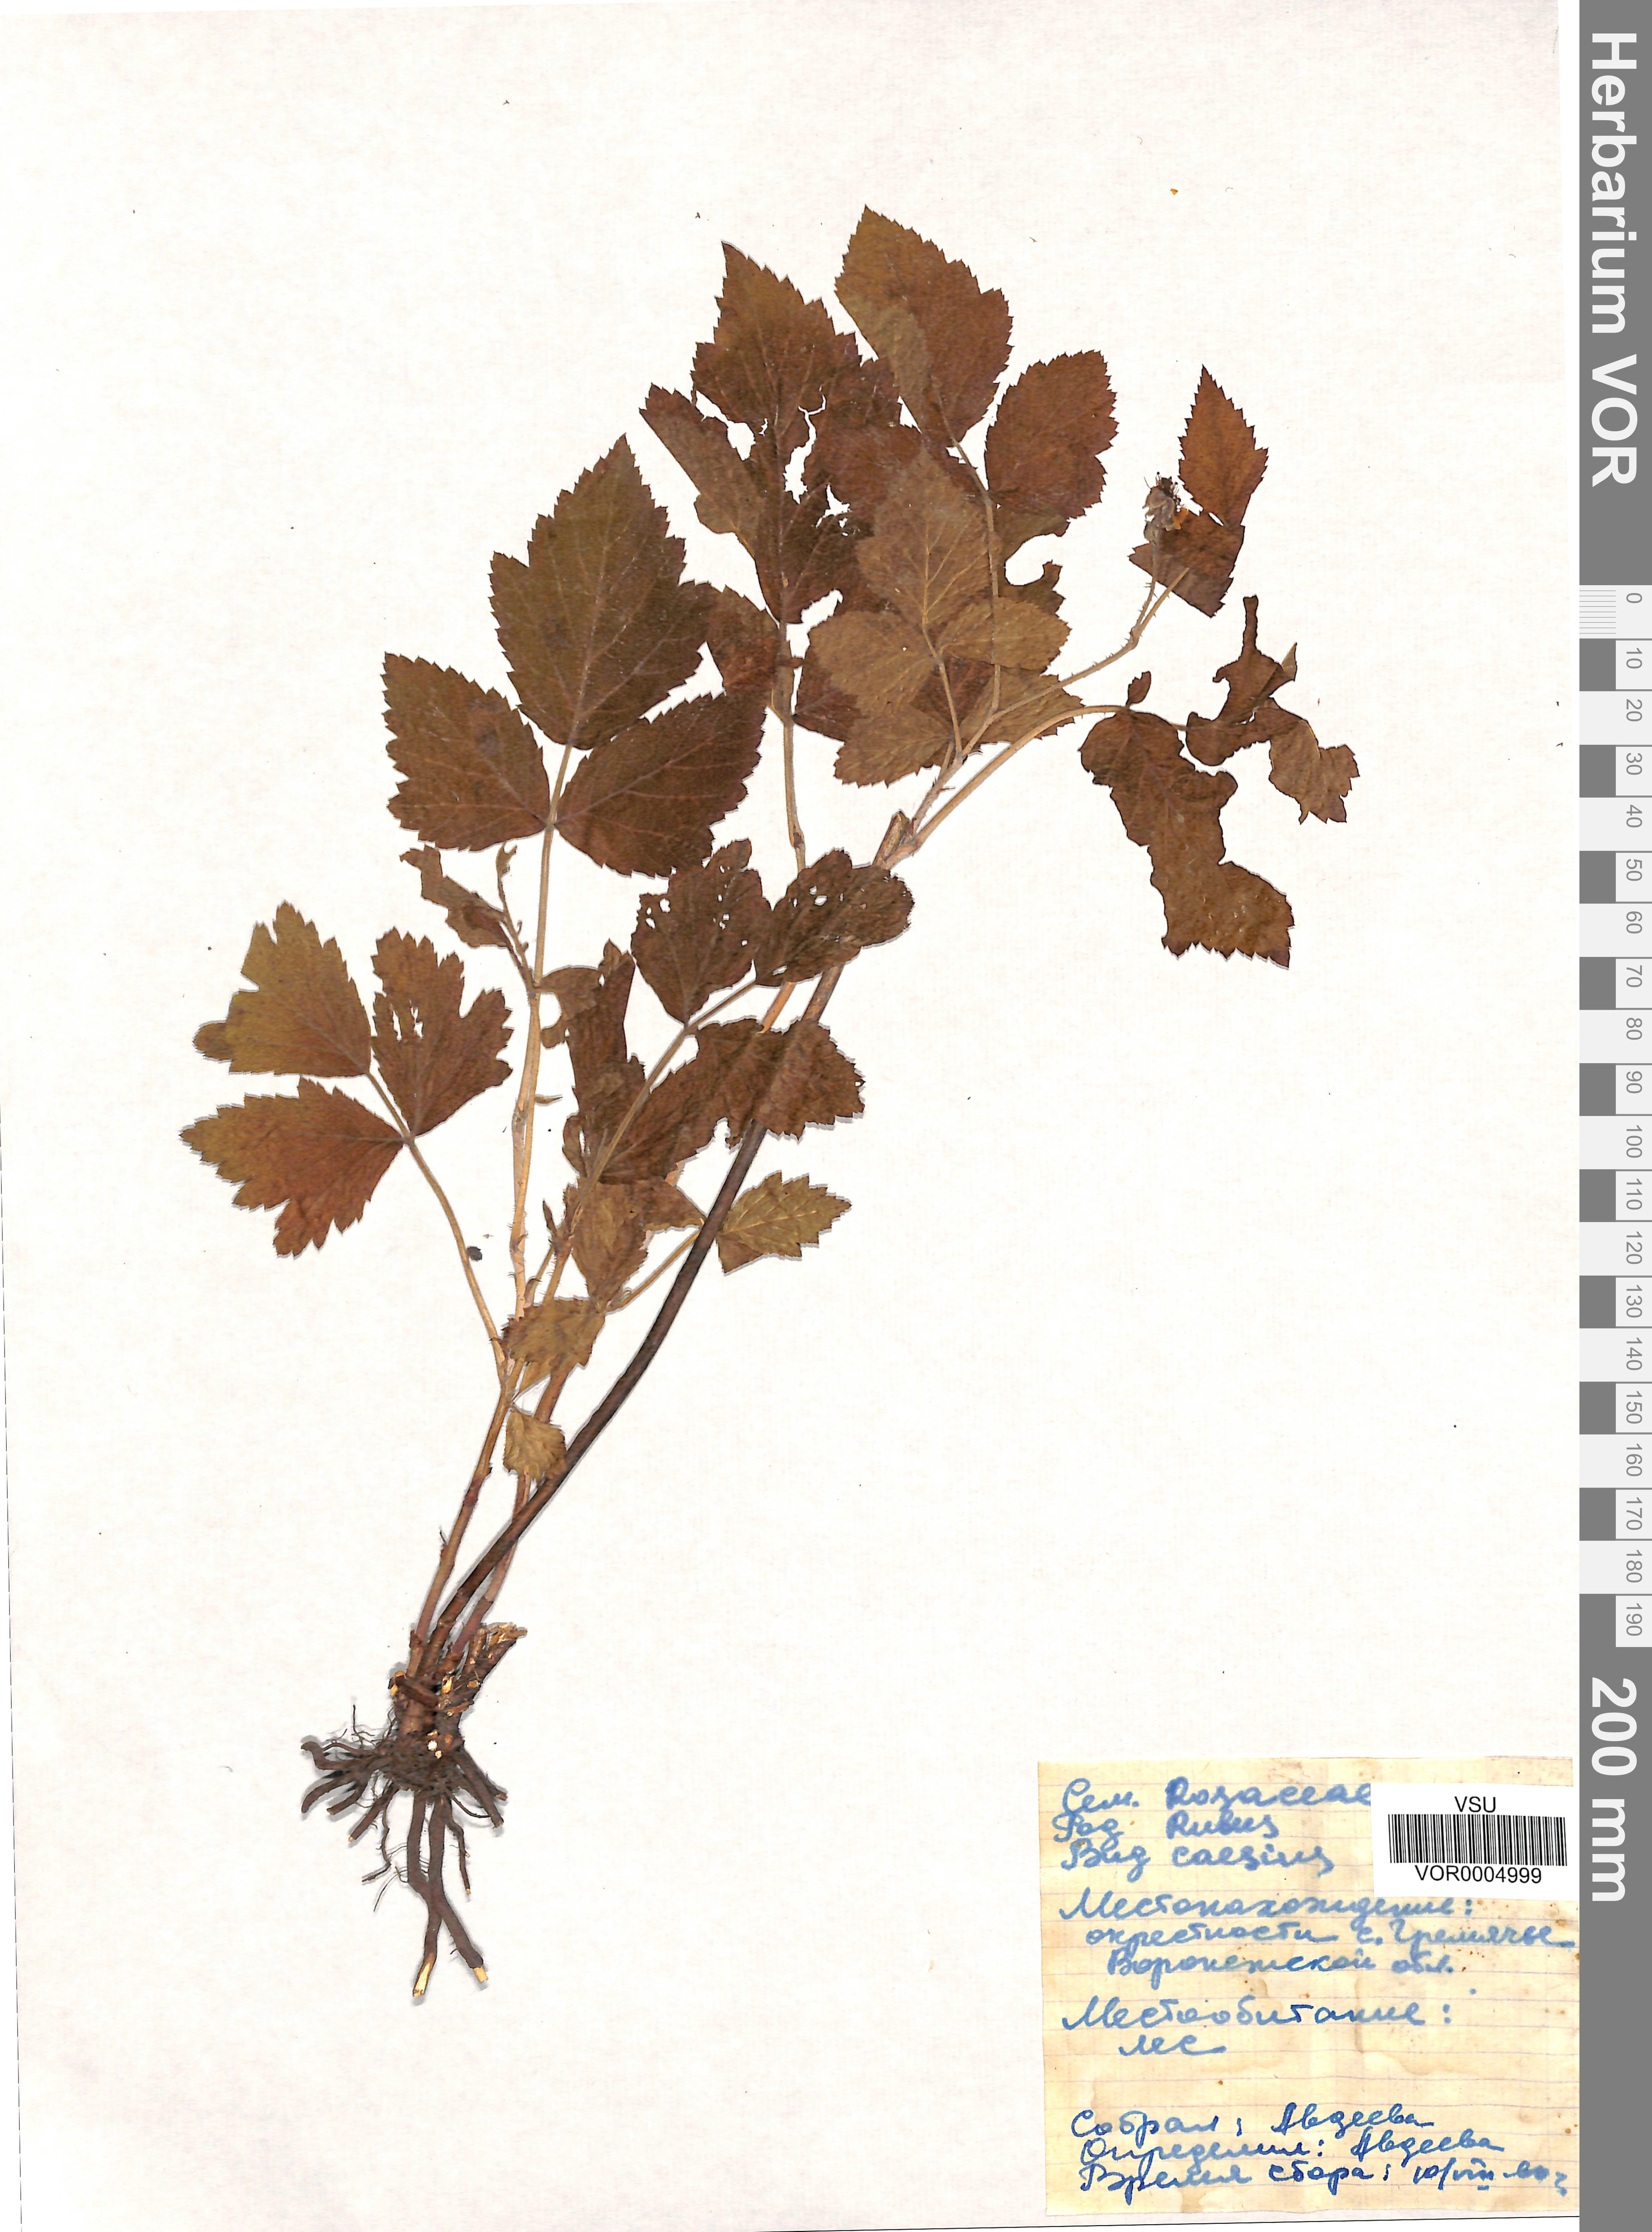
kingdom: Plantae
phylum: Tracheophyta
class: Magnoliopsida
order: Rosales
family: Rosaceae
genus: Rubus
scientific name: Rubus caesius
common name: Dewberry
